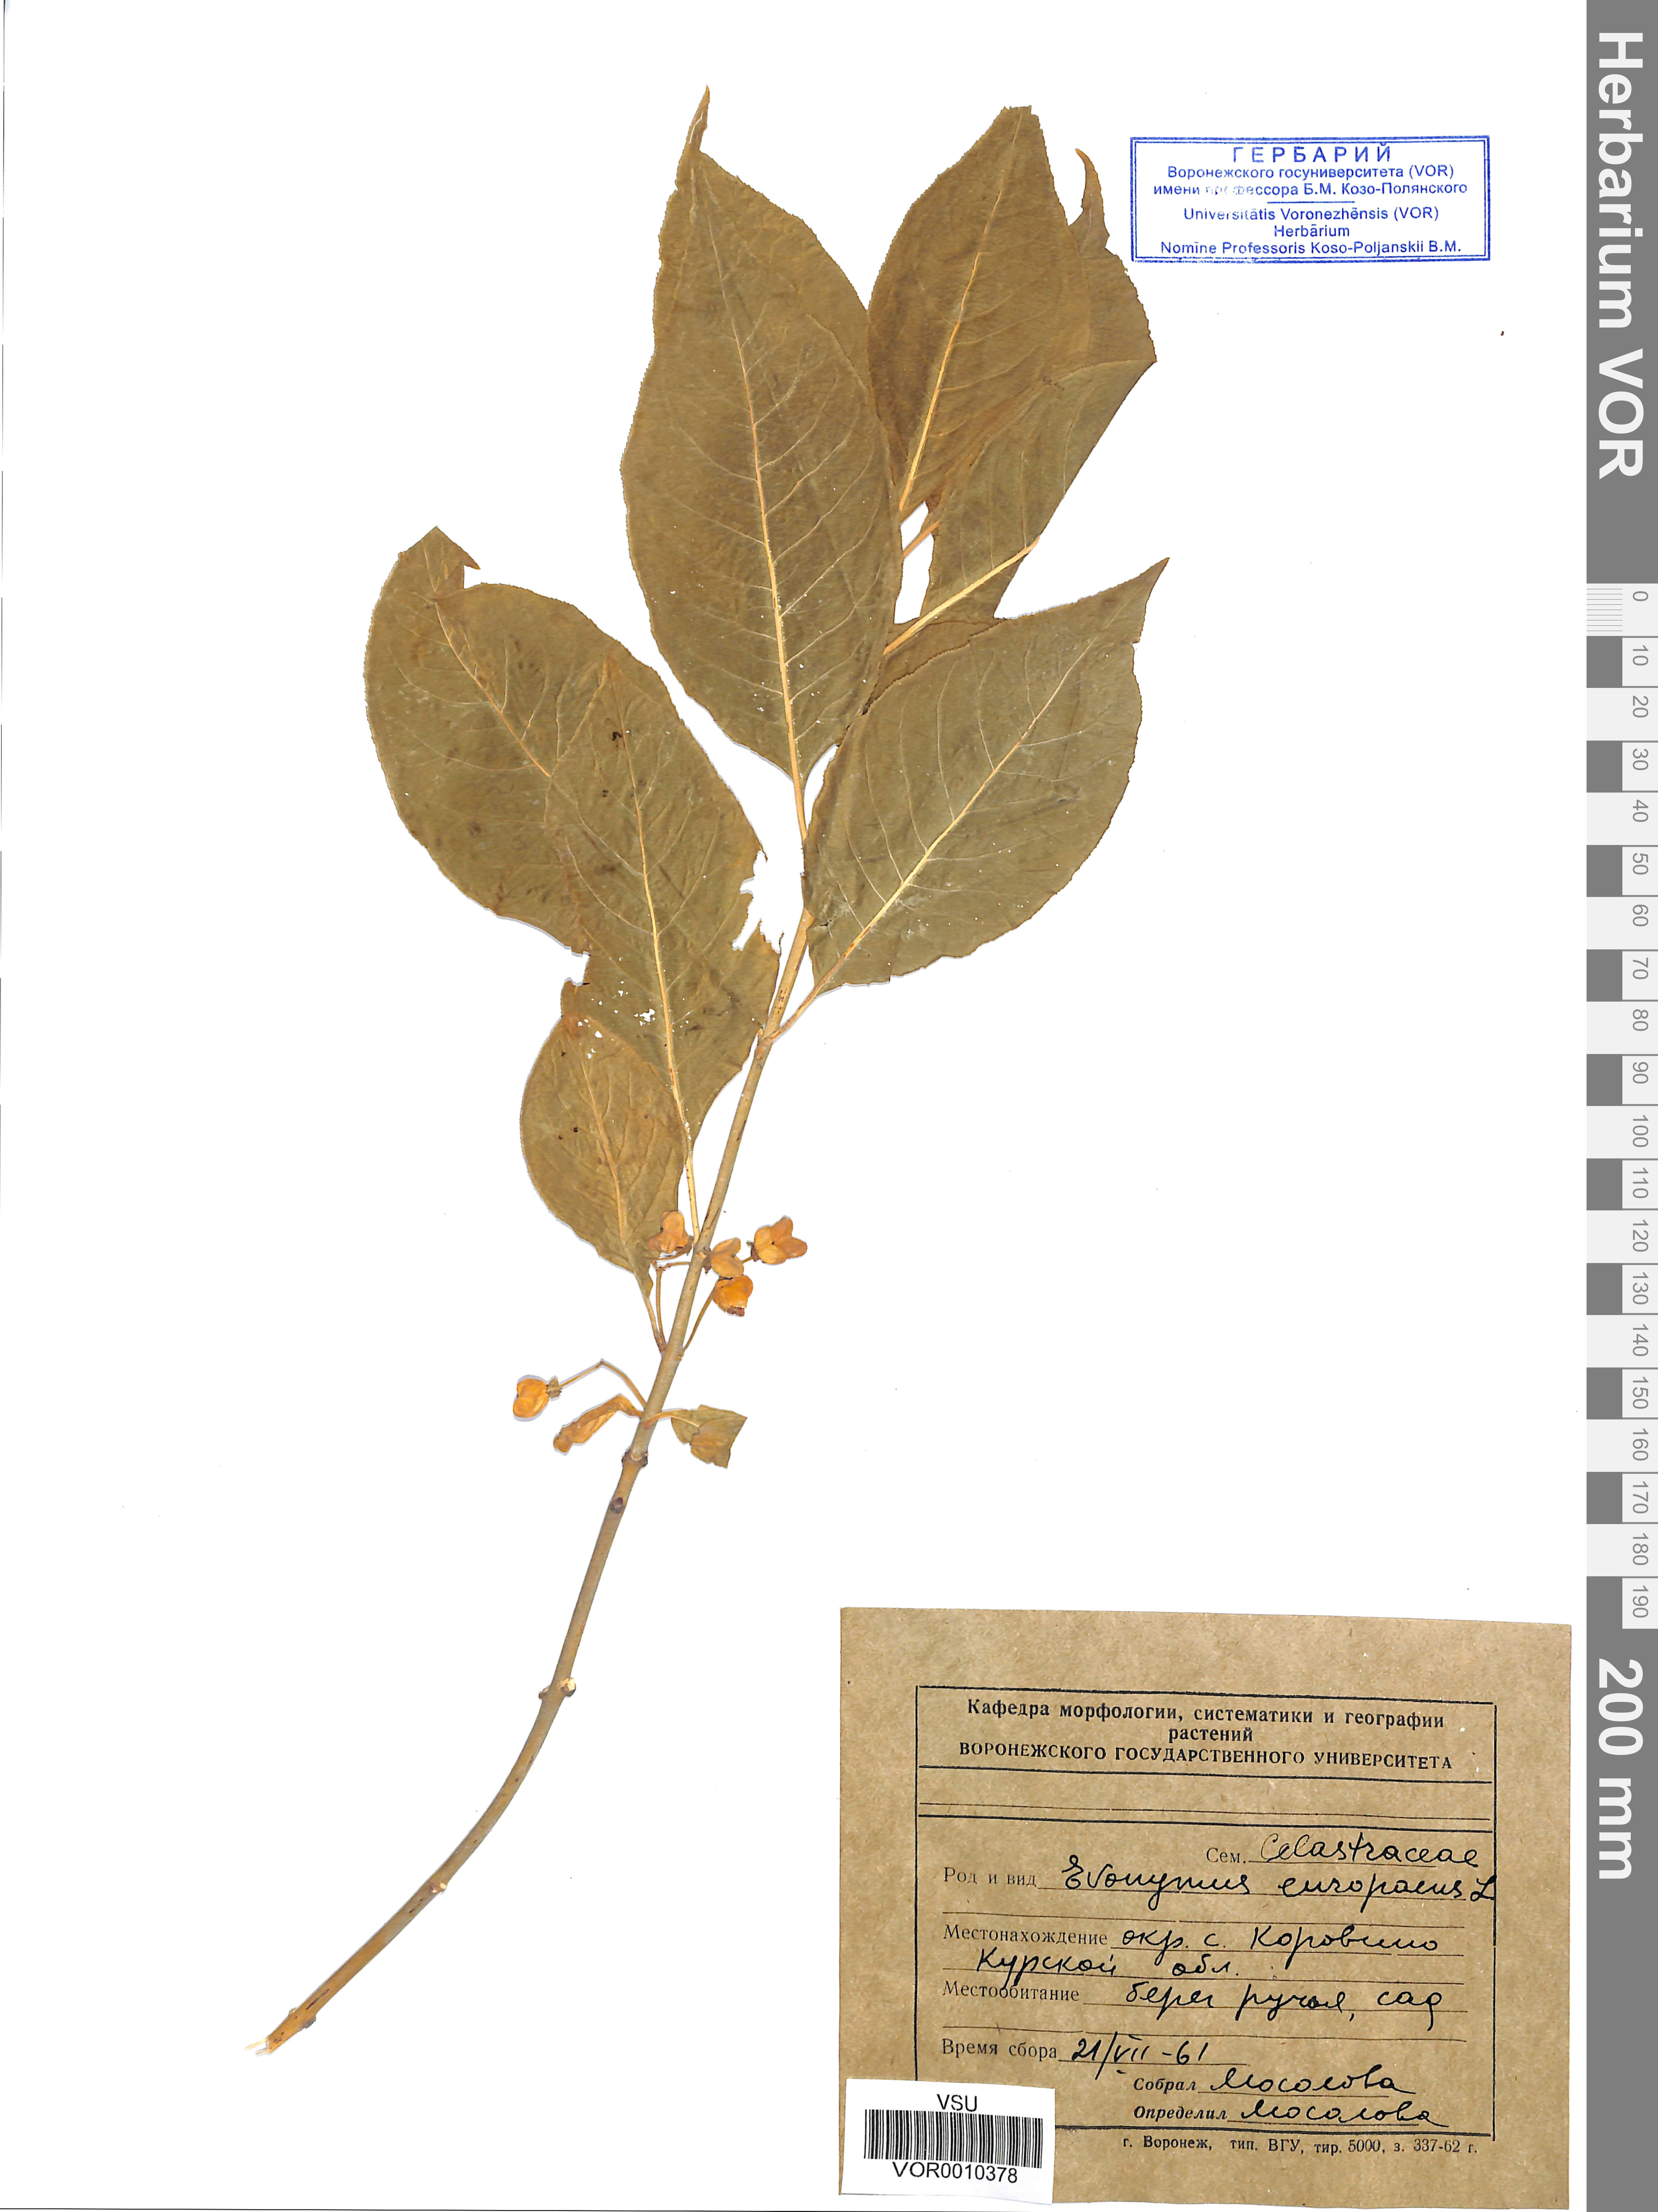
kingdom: Plantae
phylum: Tracheophyta
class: Magnoliopsida
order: Celastrales
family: Celastraceae
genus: Euonymus
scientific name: Euonymus europaeus
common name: Spindle
